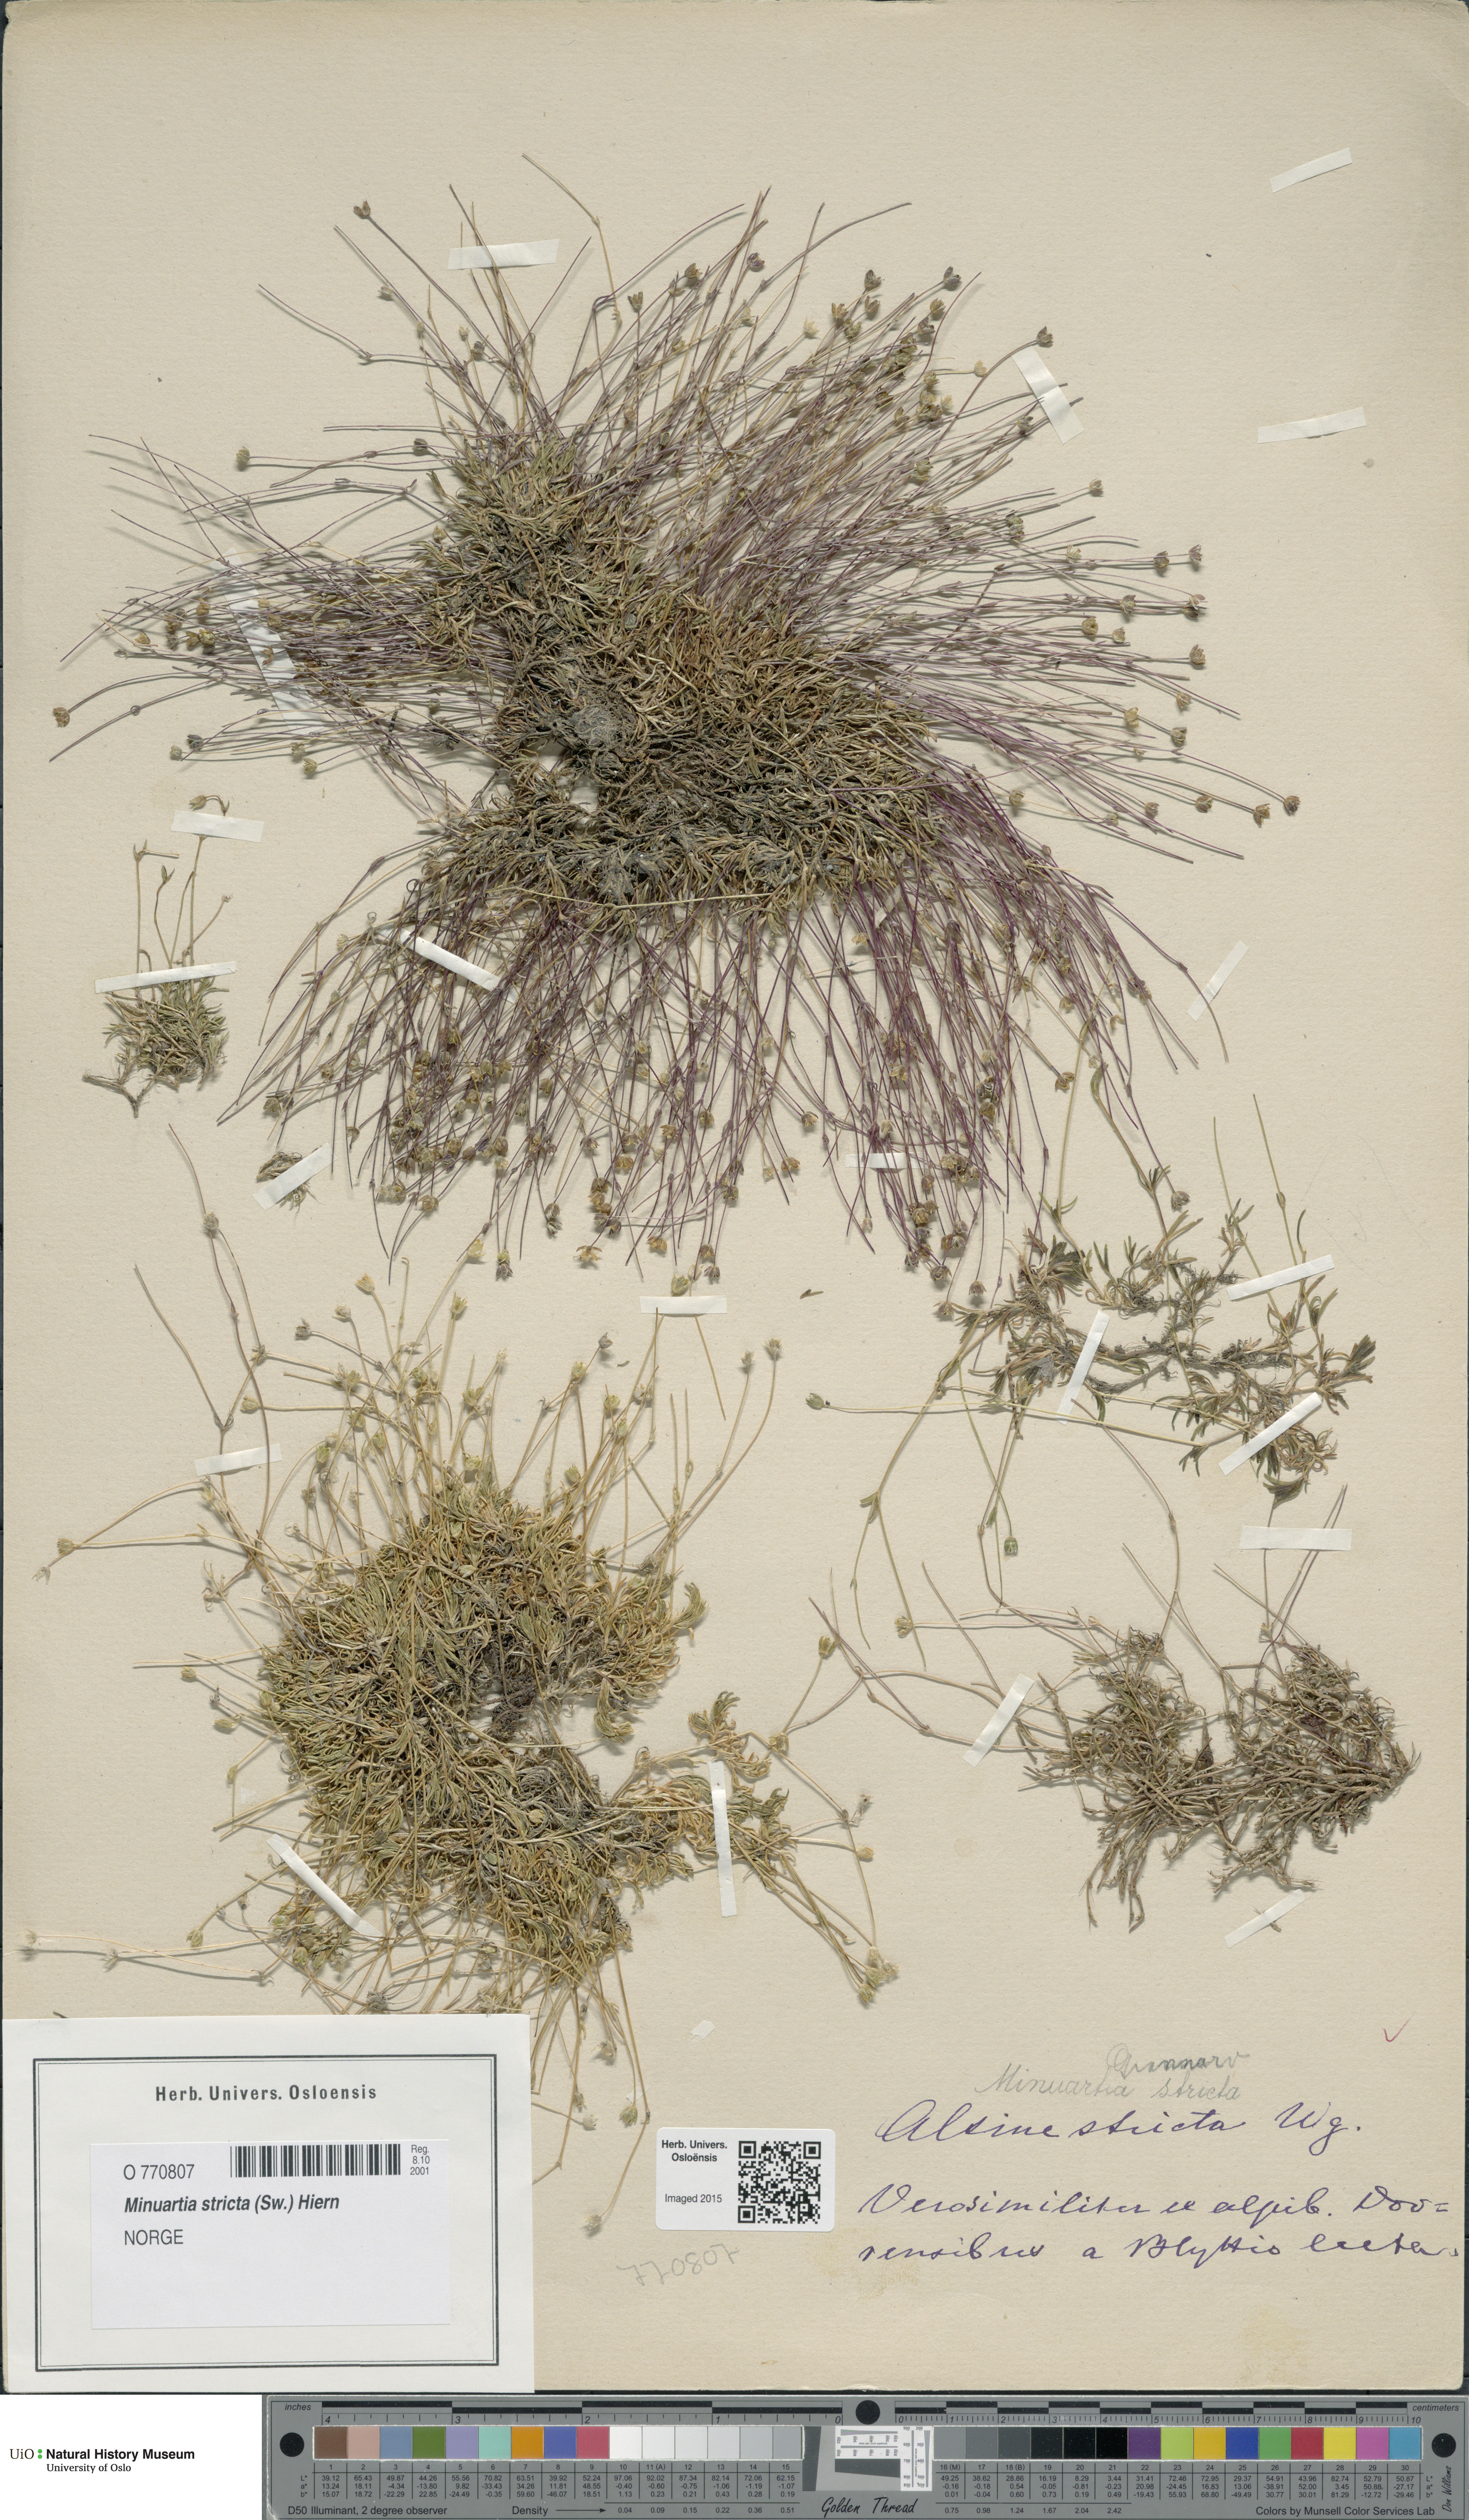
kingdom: Plantae
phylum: Tracheophyta
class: Magnoliopsida
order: Caryophyllales
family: Caryophyllaceae
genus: Sabulina
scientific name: Sabulina stricta
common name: Bog sandwort
